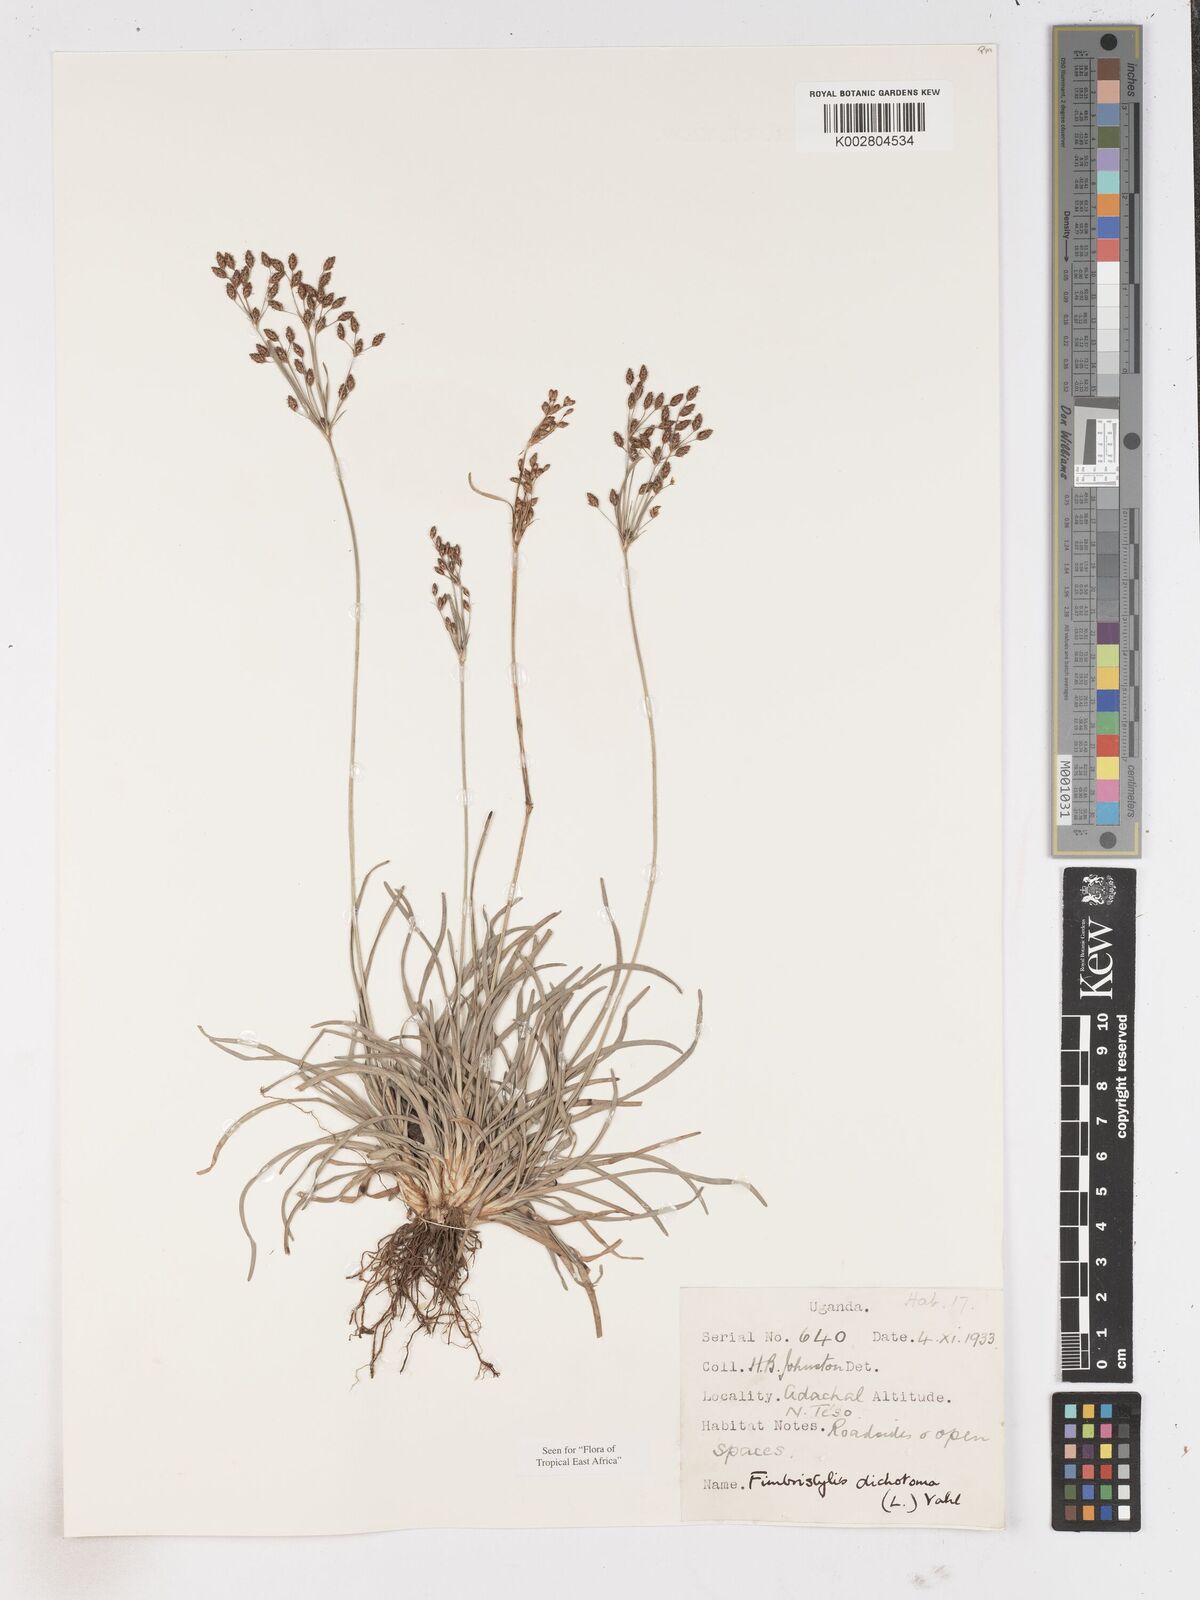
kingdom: Plantae
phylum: Tracheophyta
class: Liliopsida
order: Poales
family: Cyperaceae
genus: Fimbristylis
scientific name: Fimbristylis dichotoma
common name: Forked fimbry
